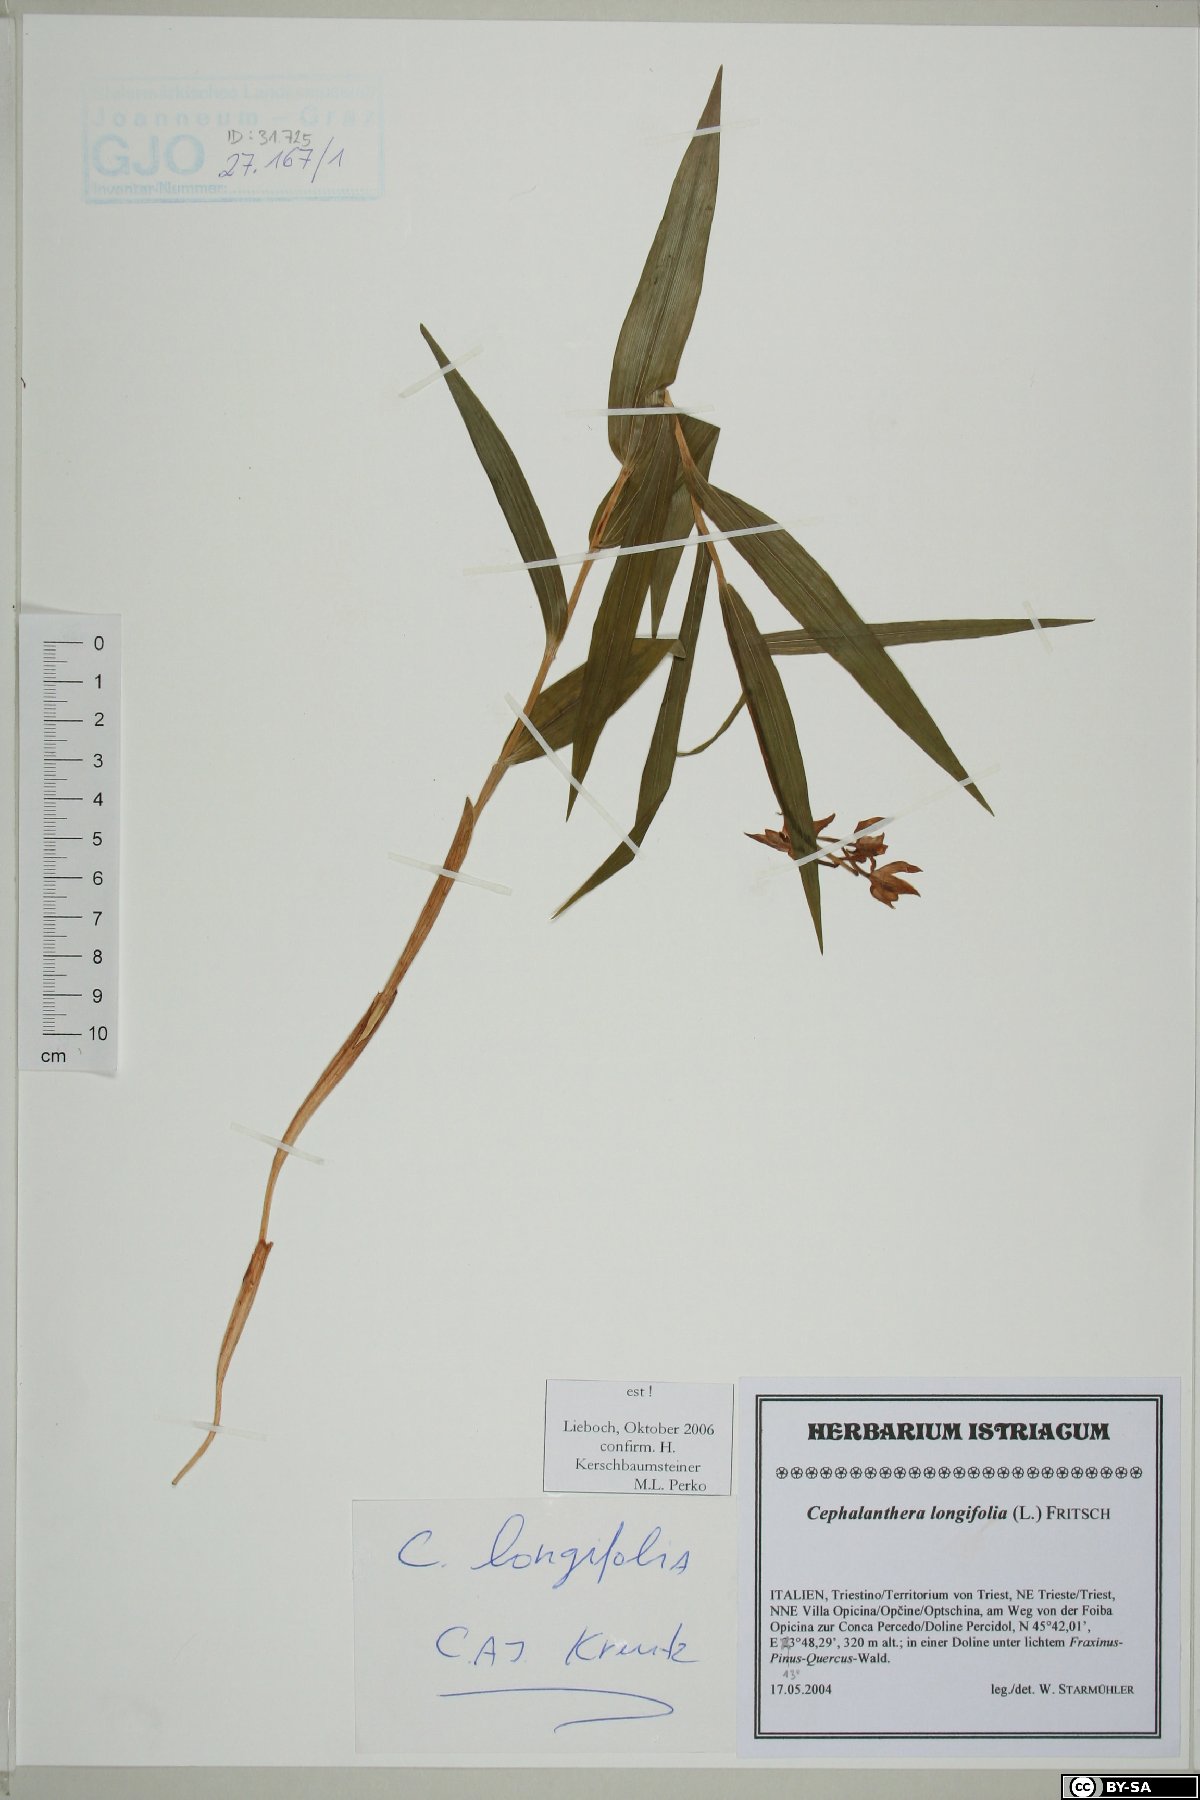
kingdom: Plantae
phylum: Tracheophyta
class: Liliopsida
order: Asparagales
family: Orchidaceae
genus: Cephalanthera
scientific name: Cephalanthera longifolia
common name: Narrow-leaved helleborine
